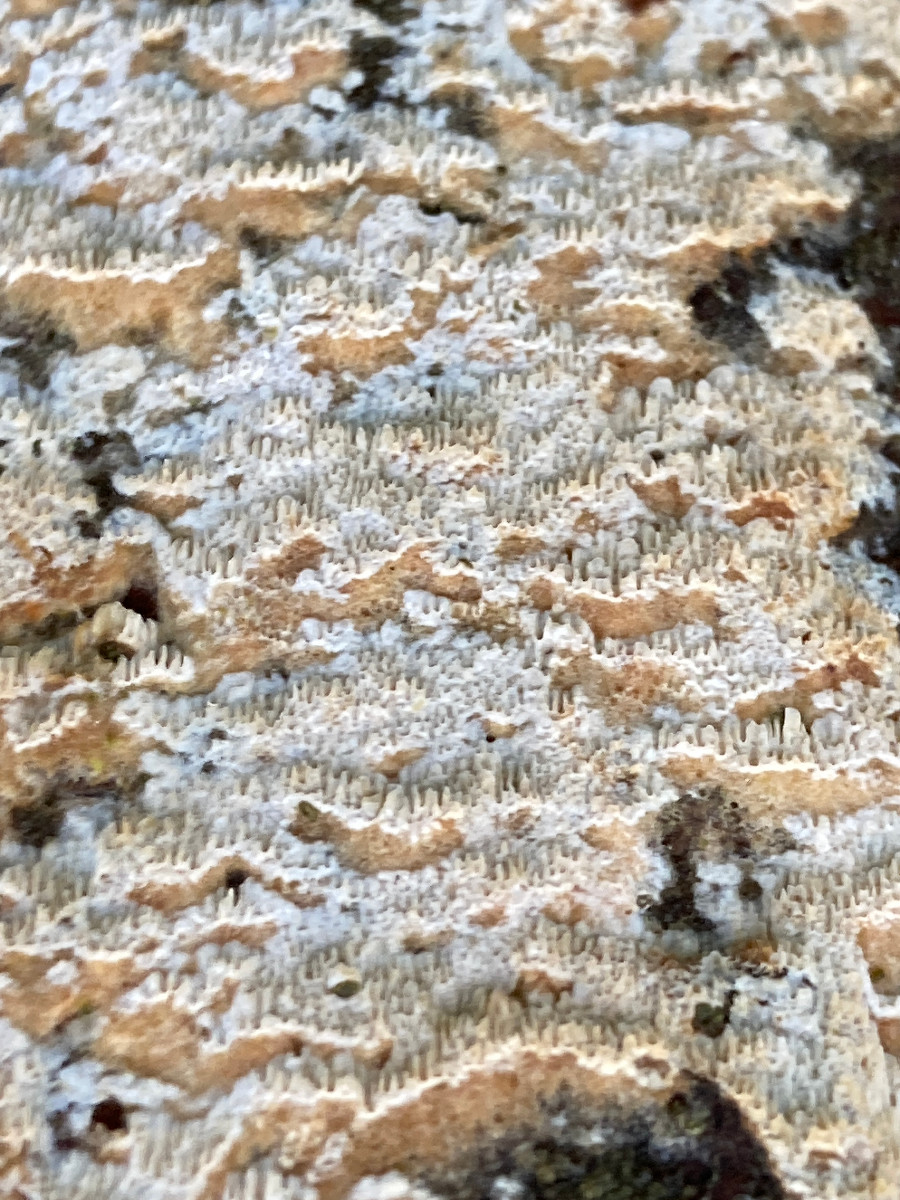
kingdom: Fungi
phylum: Basidiomycota
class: Agaricomycetes
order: Corticiales
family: Corticiaceae
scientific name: Corticiaceae
